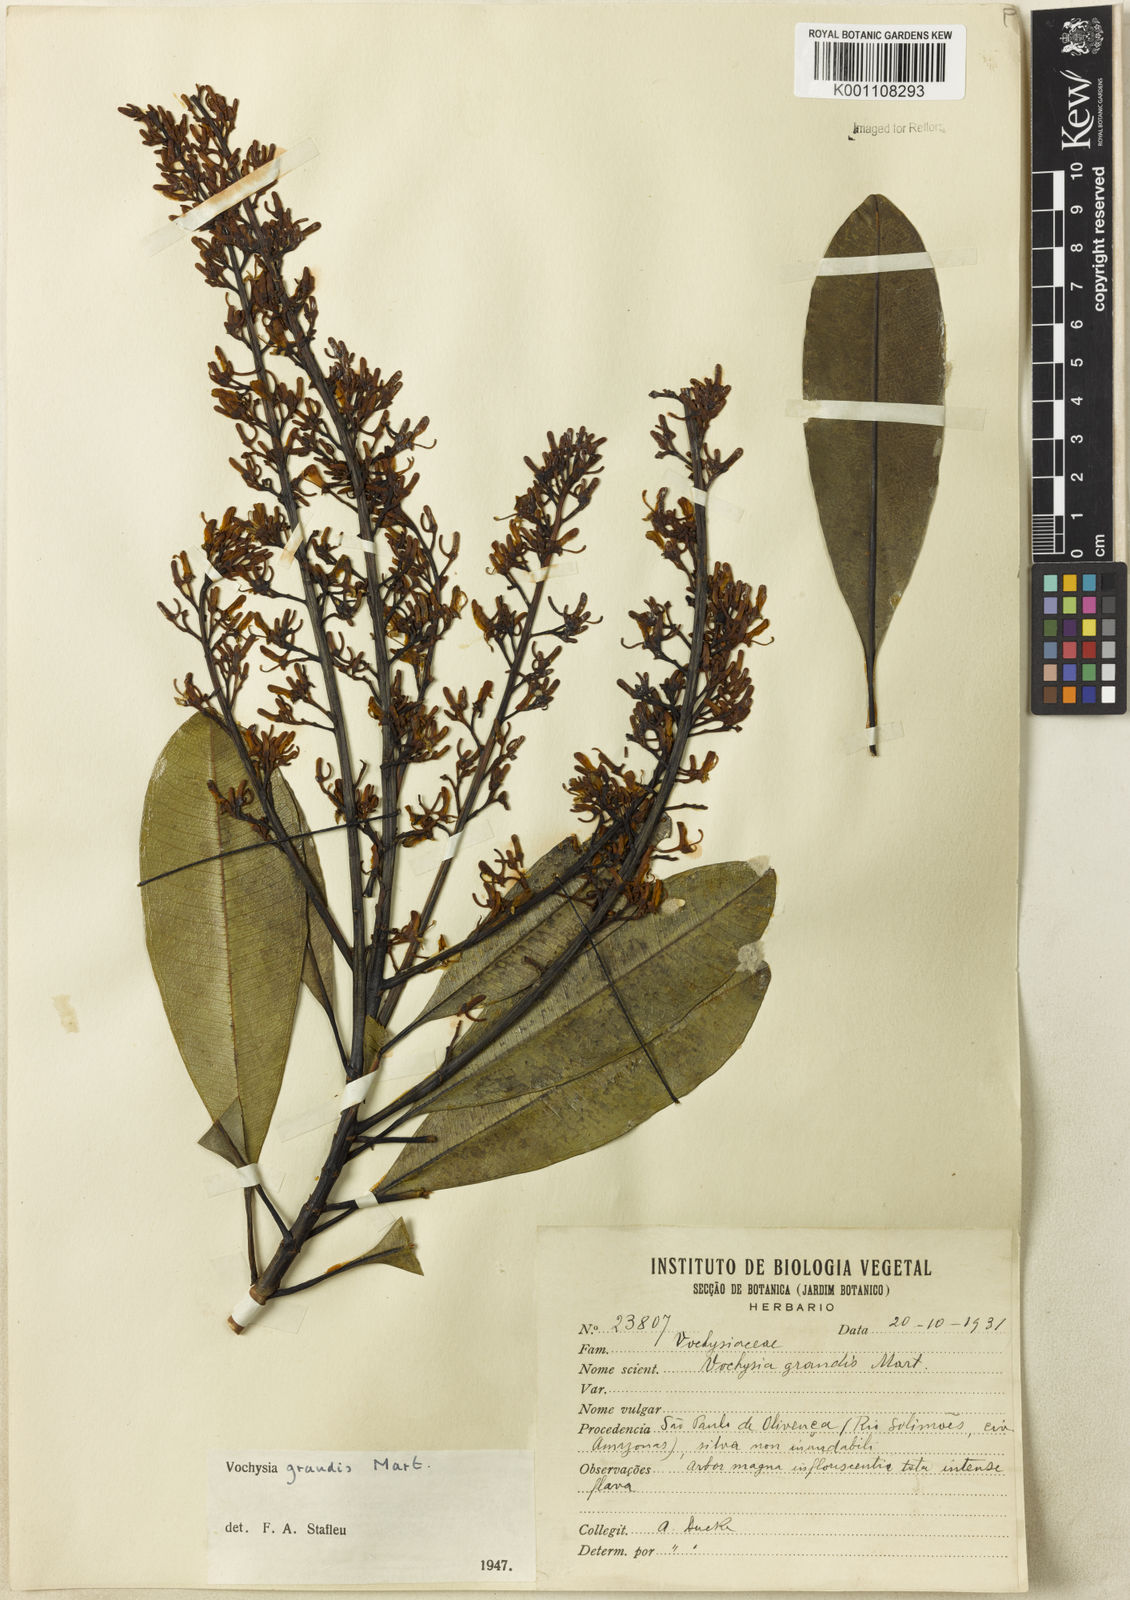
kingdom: Plantae
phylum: Tracheophyta
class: Magnoliopsida
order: Myrtales
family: Vochysiaceae
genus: Vochysia
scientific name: Vochysia grandis
